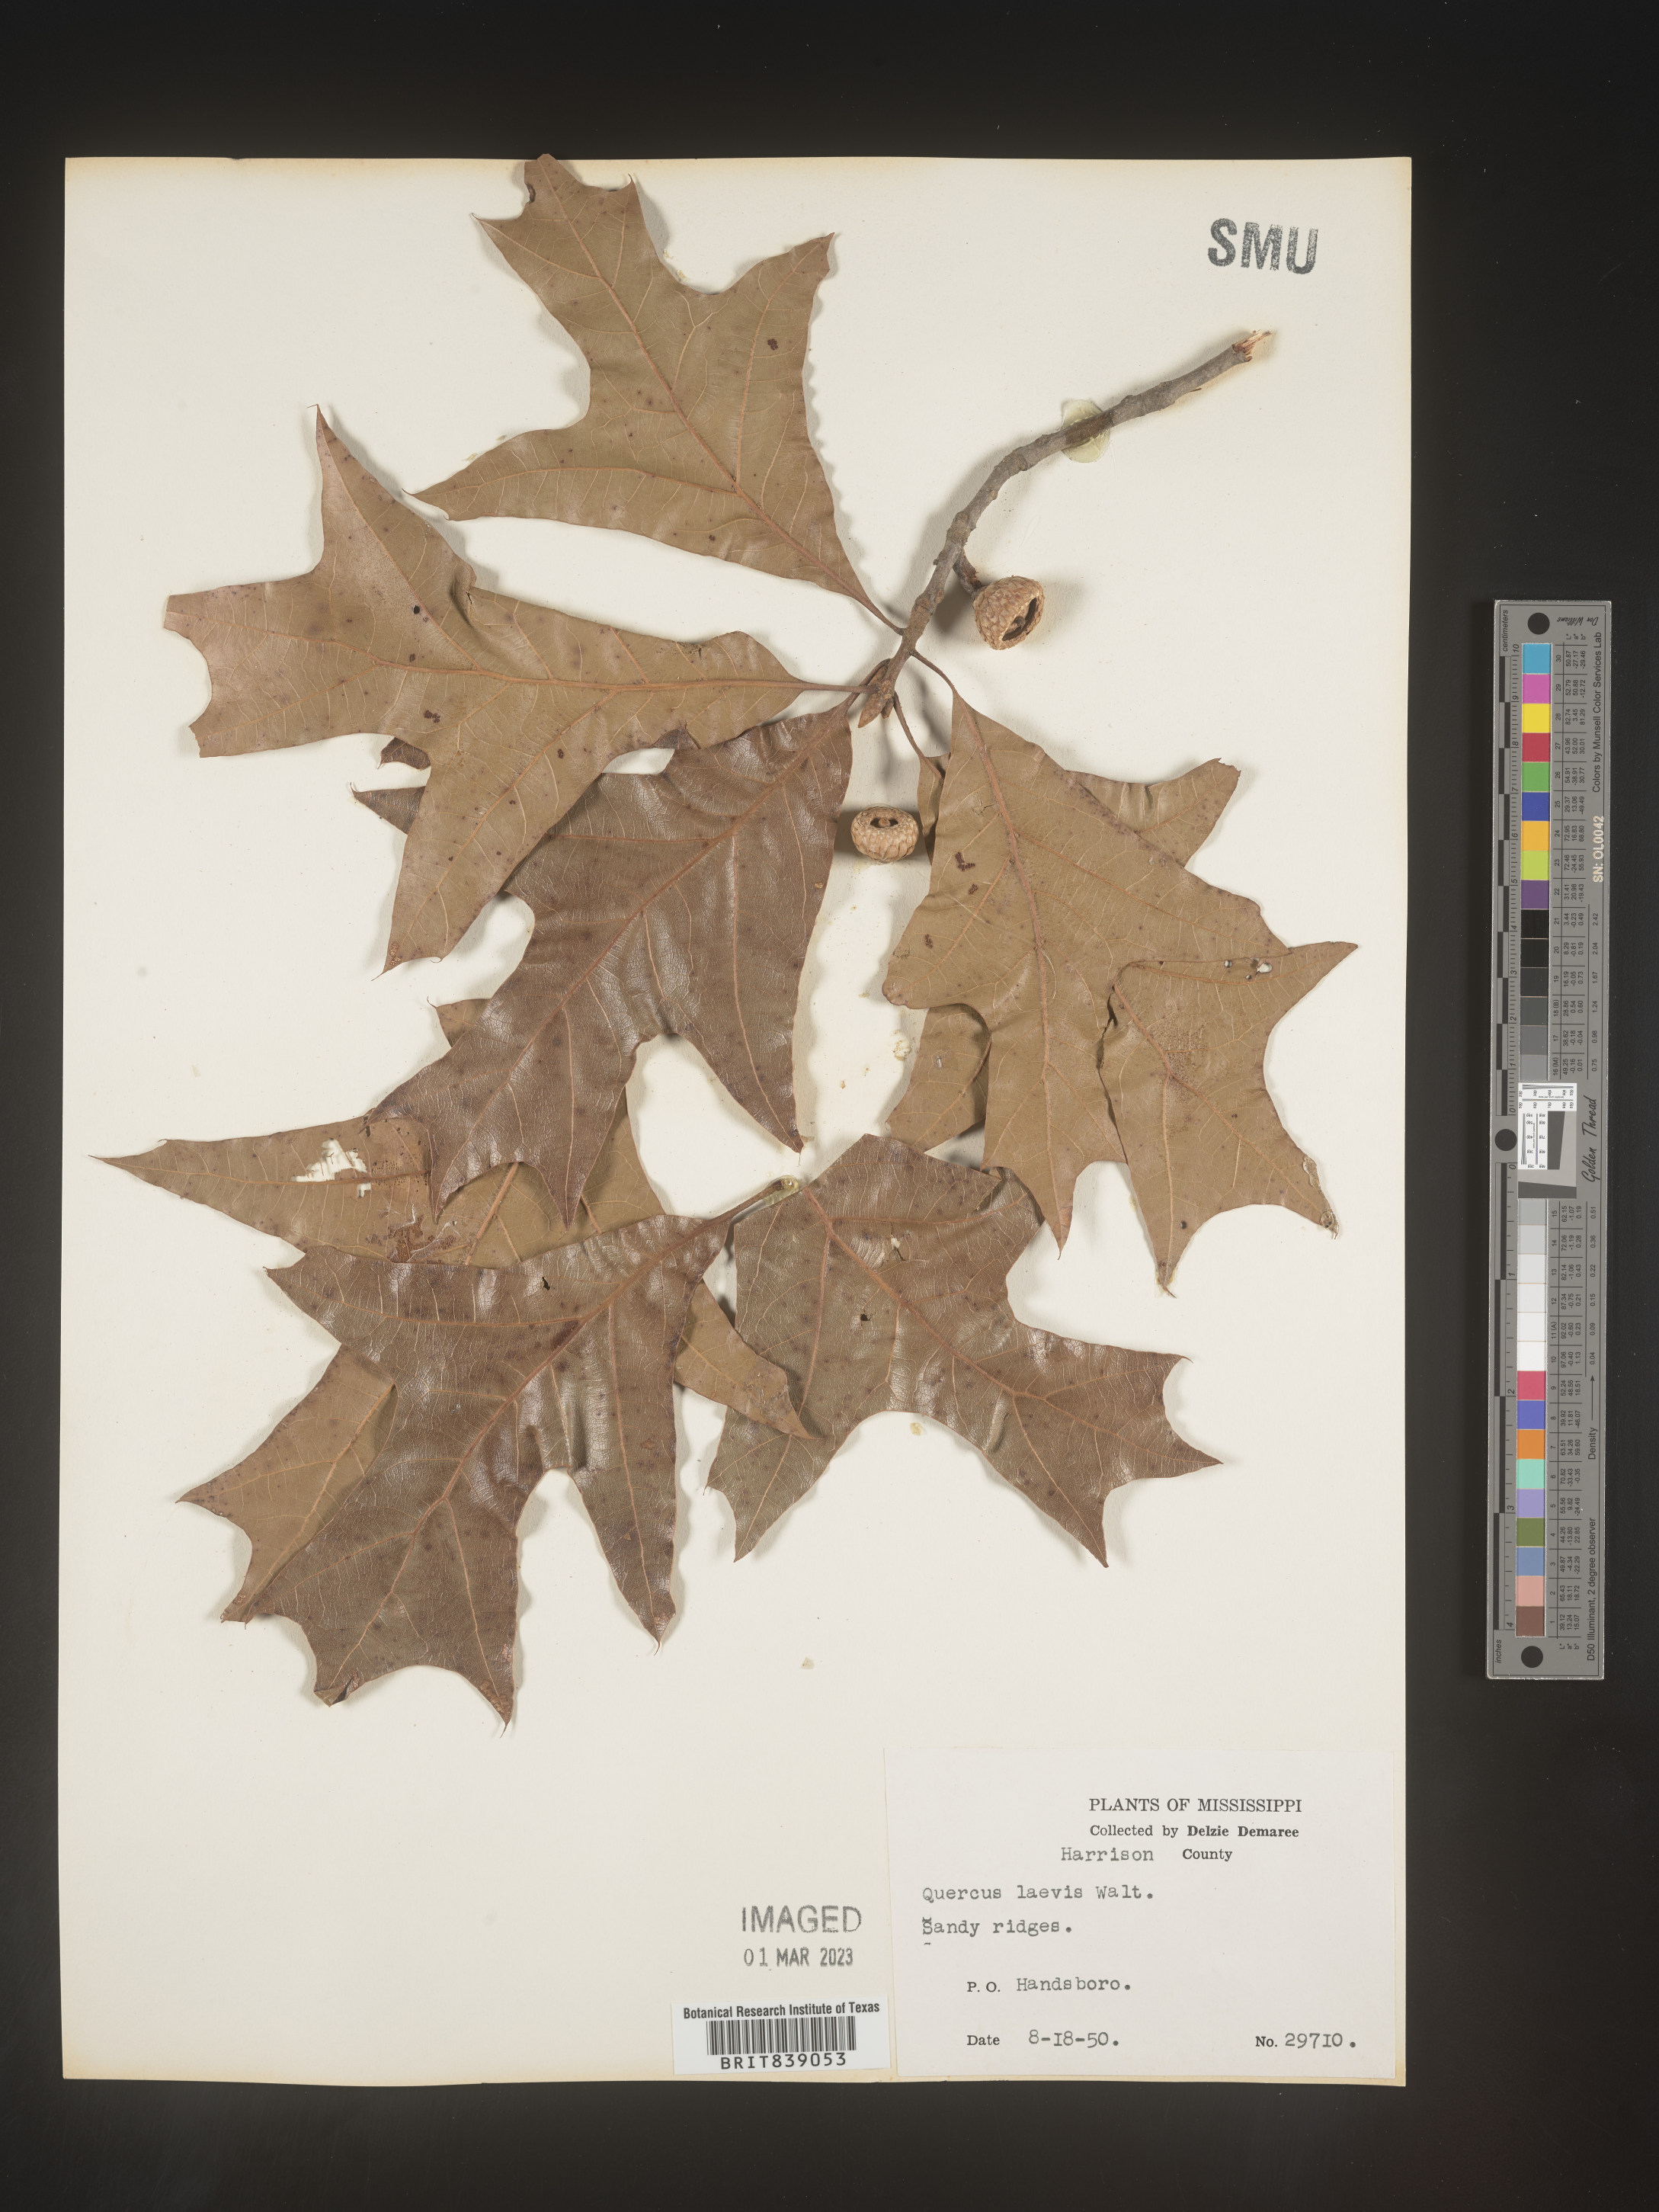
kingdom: Plantae
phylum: Tracheophyta
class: Magnoliopsida
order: Fagales
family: Fagaceae
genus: Quercus
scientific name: Quercus laevis
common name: Turkey oak
